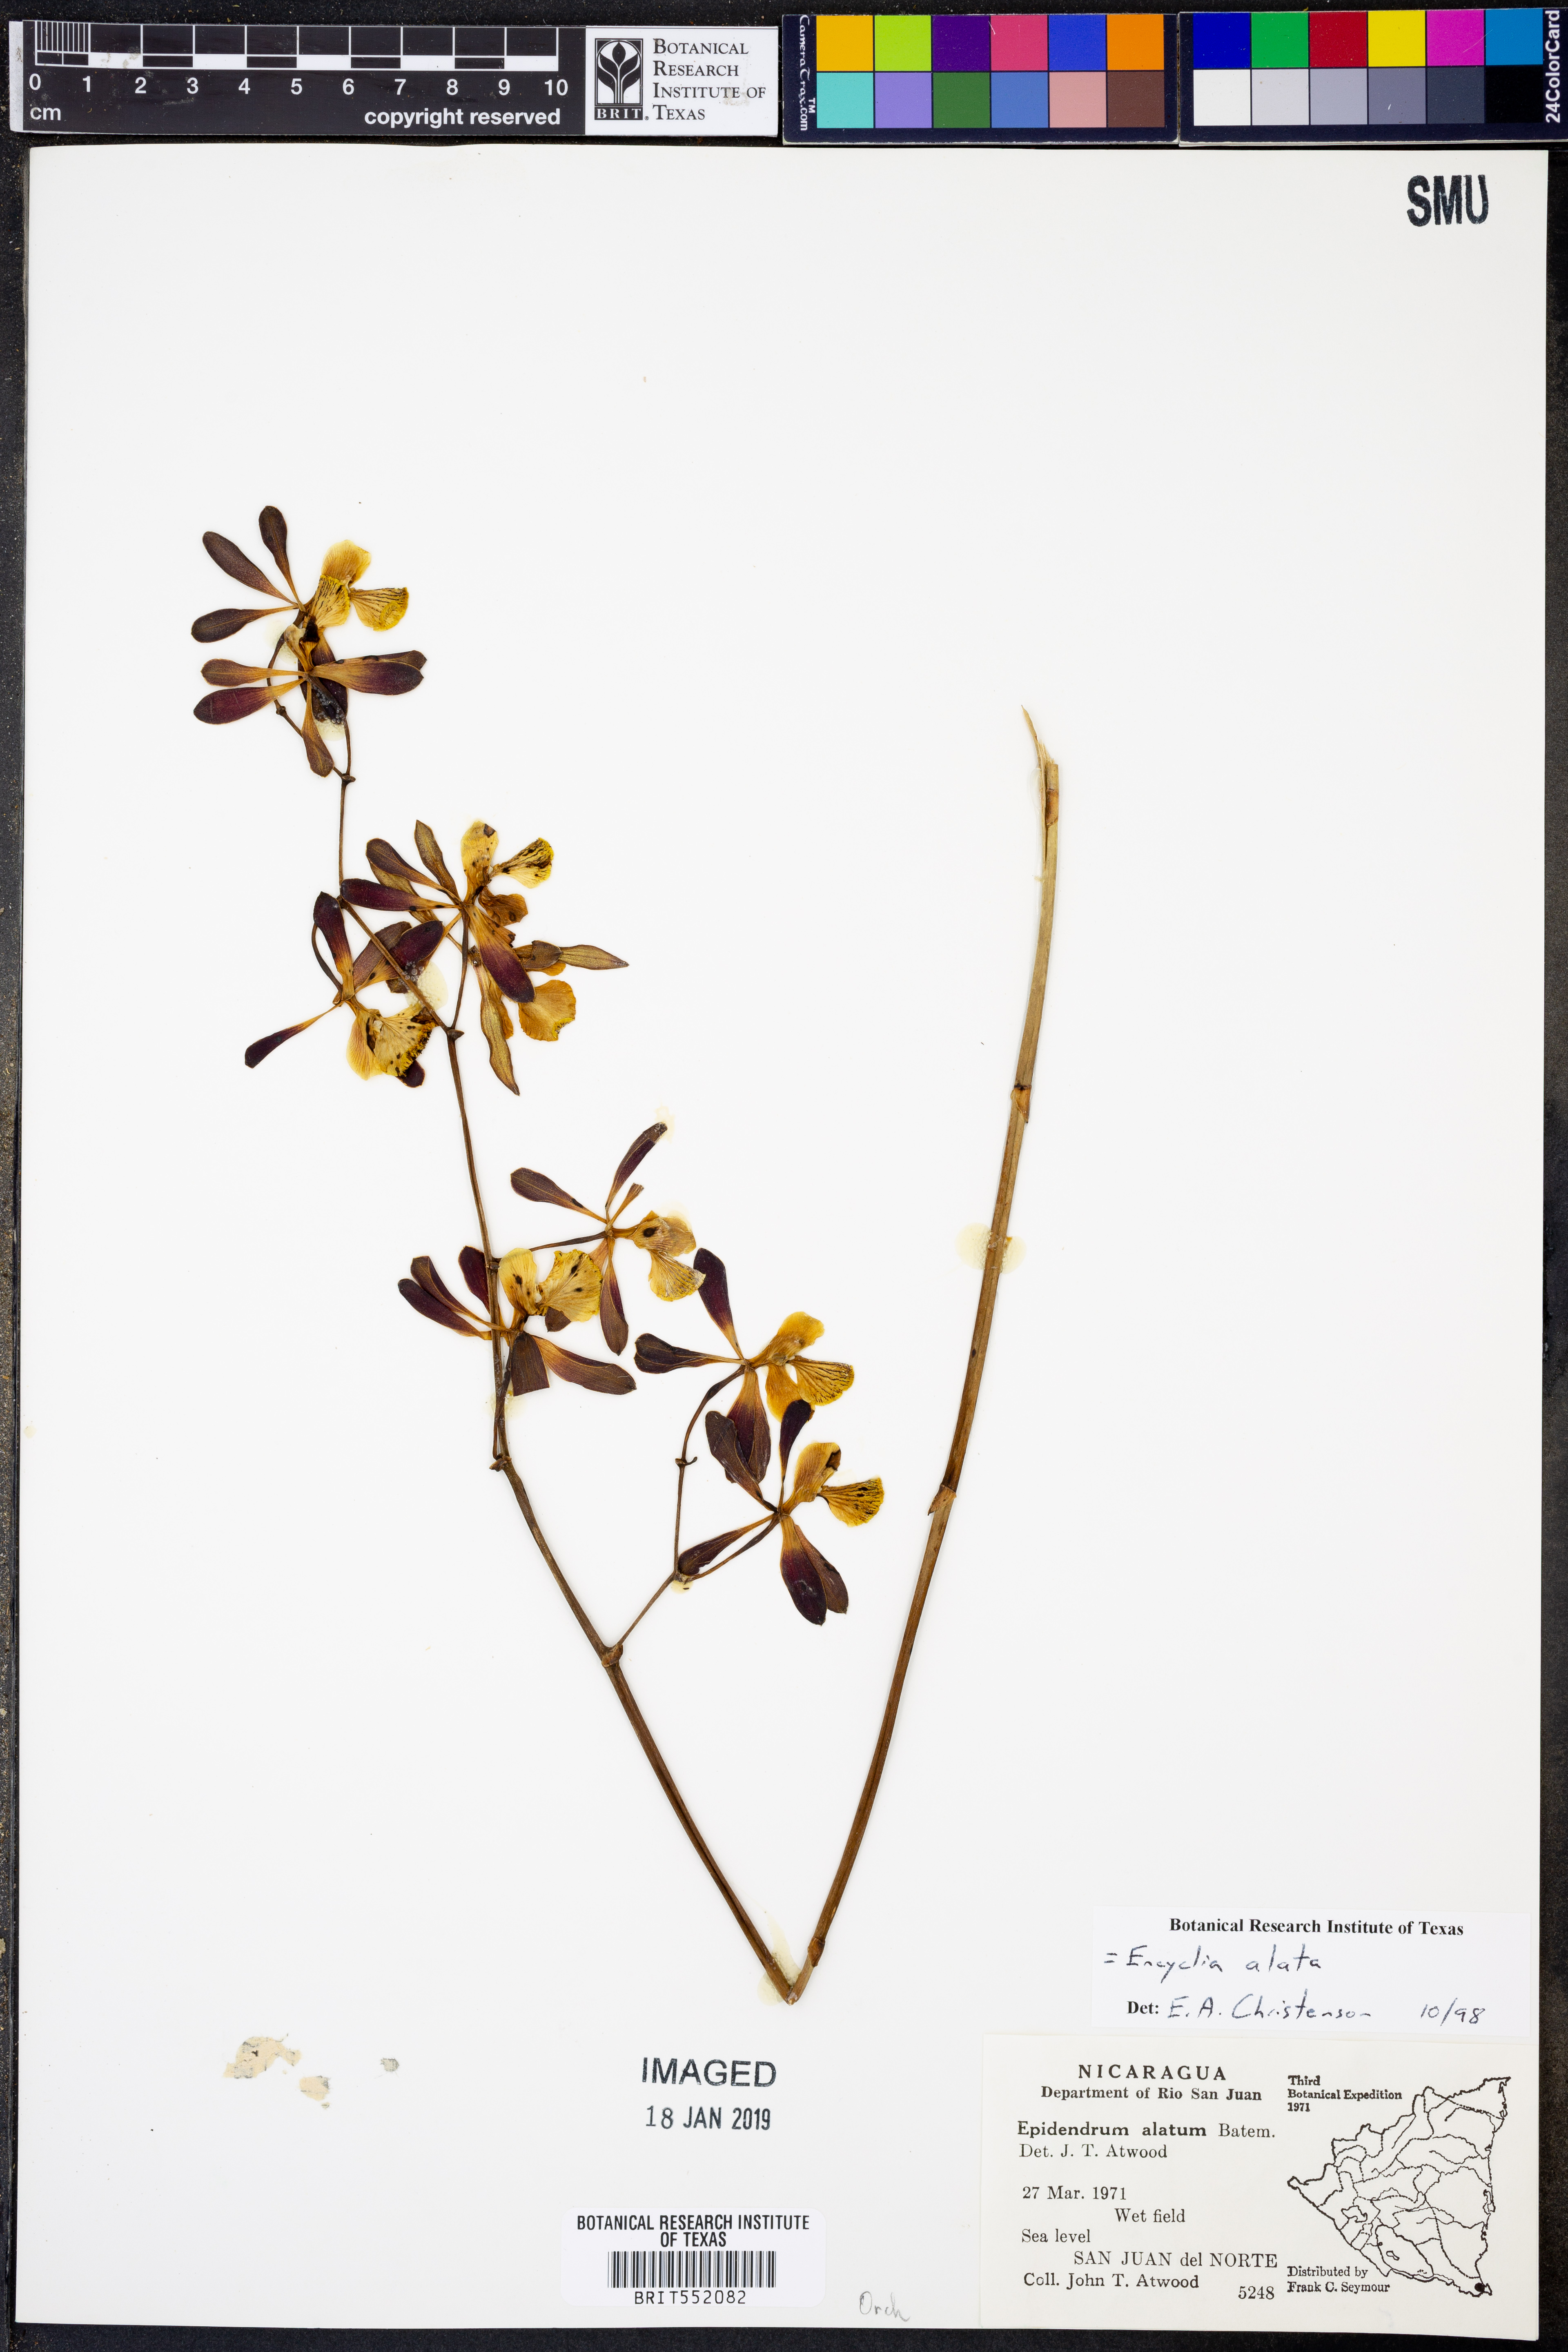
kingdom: Plantae
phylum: Tracheophyta
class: Liliopsida
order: Asparagales
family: Orchidaceae
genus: Encyclia
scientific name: Encyclia alata
